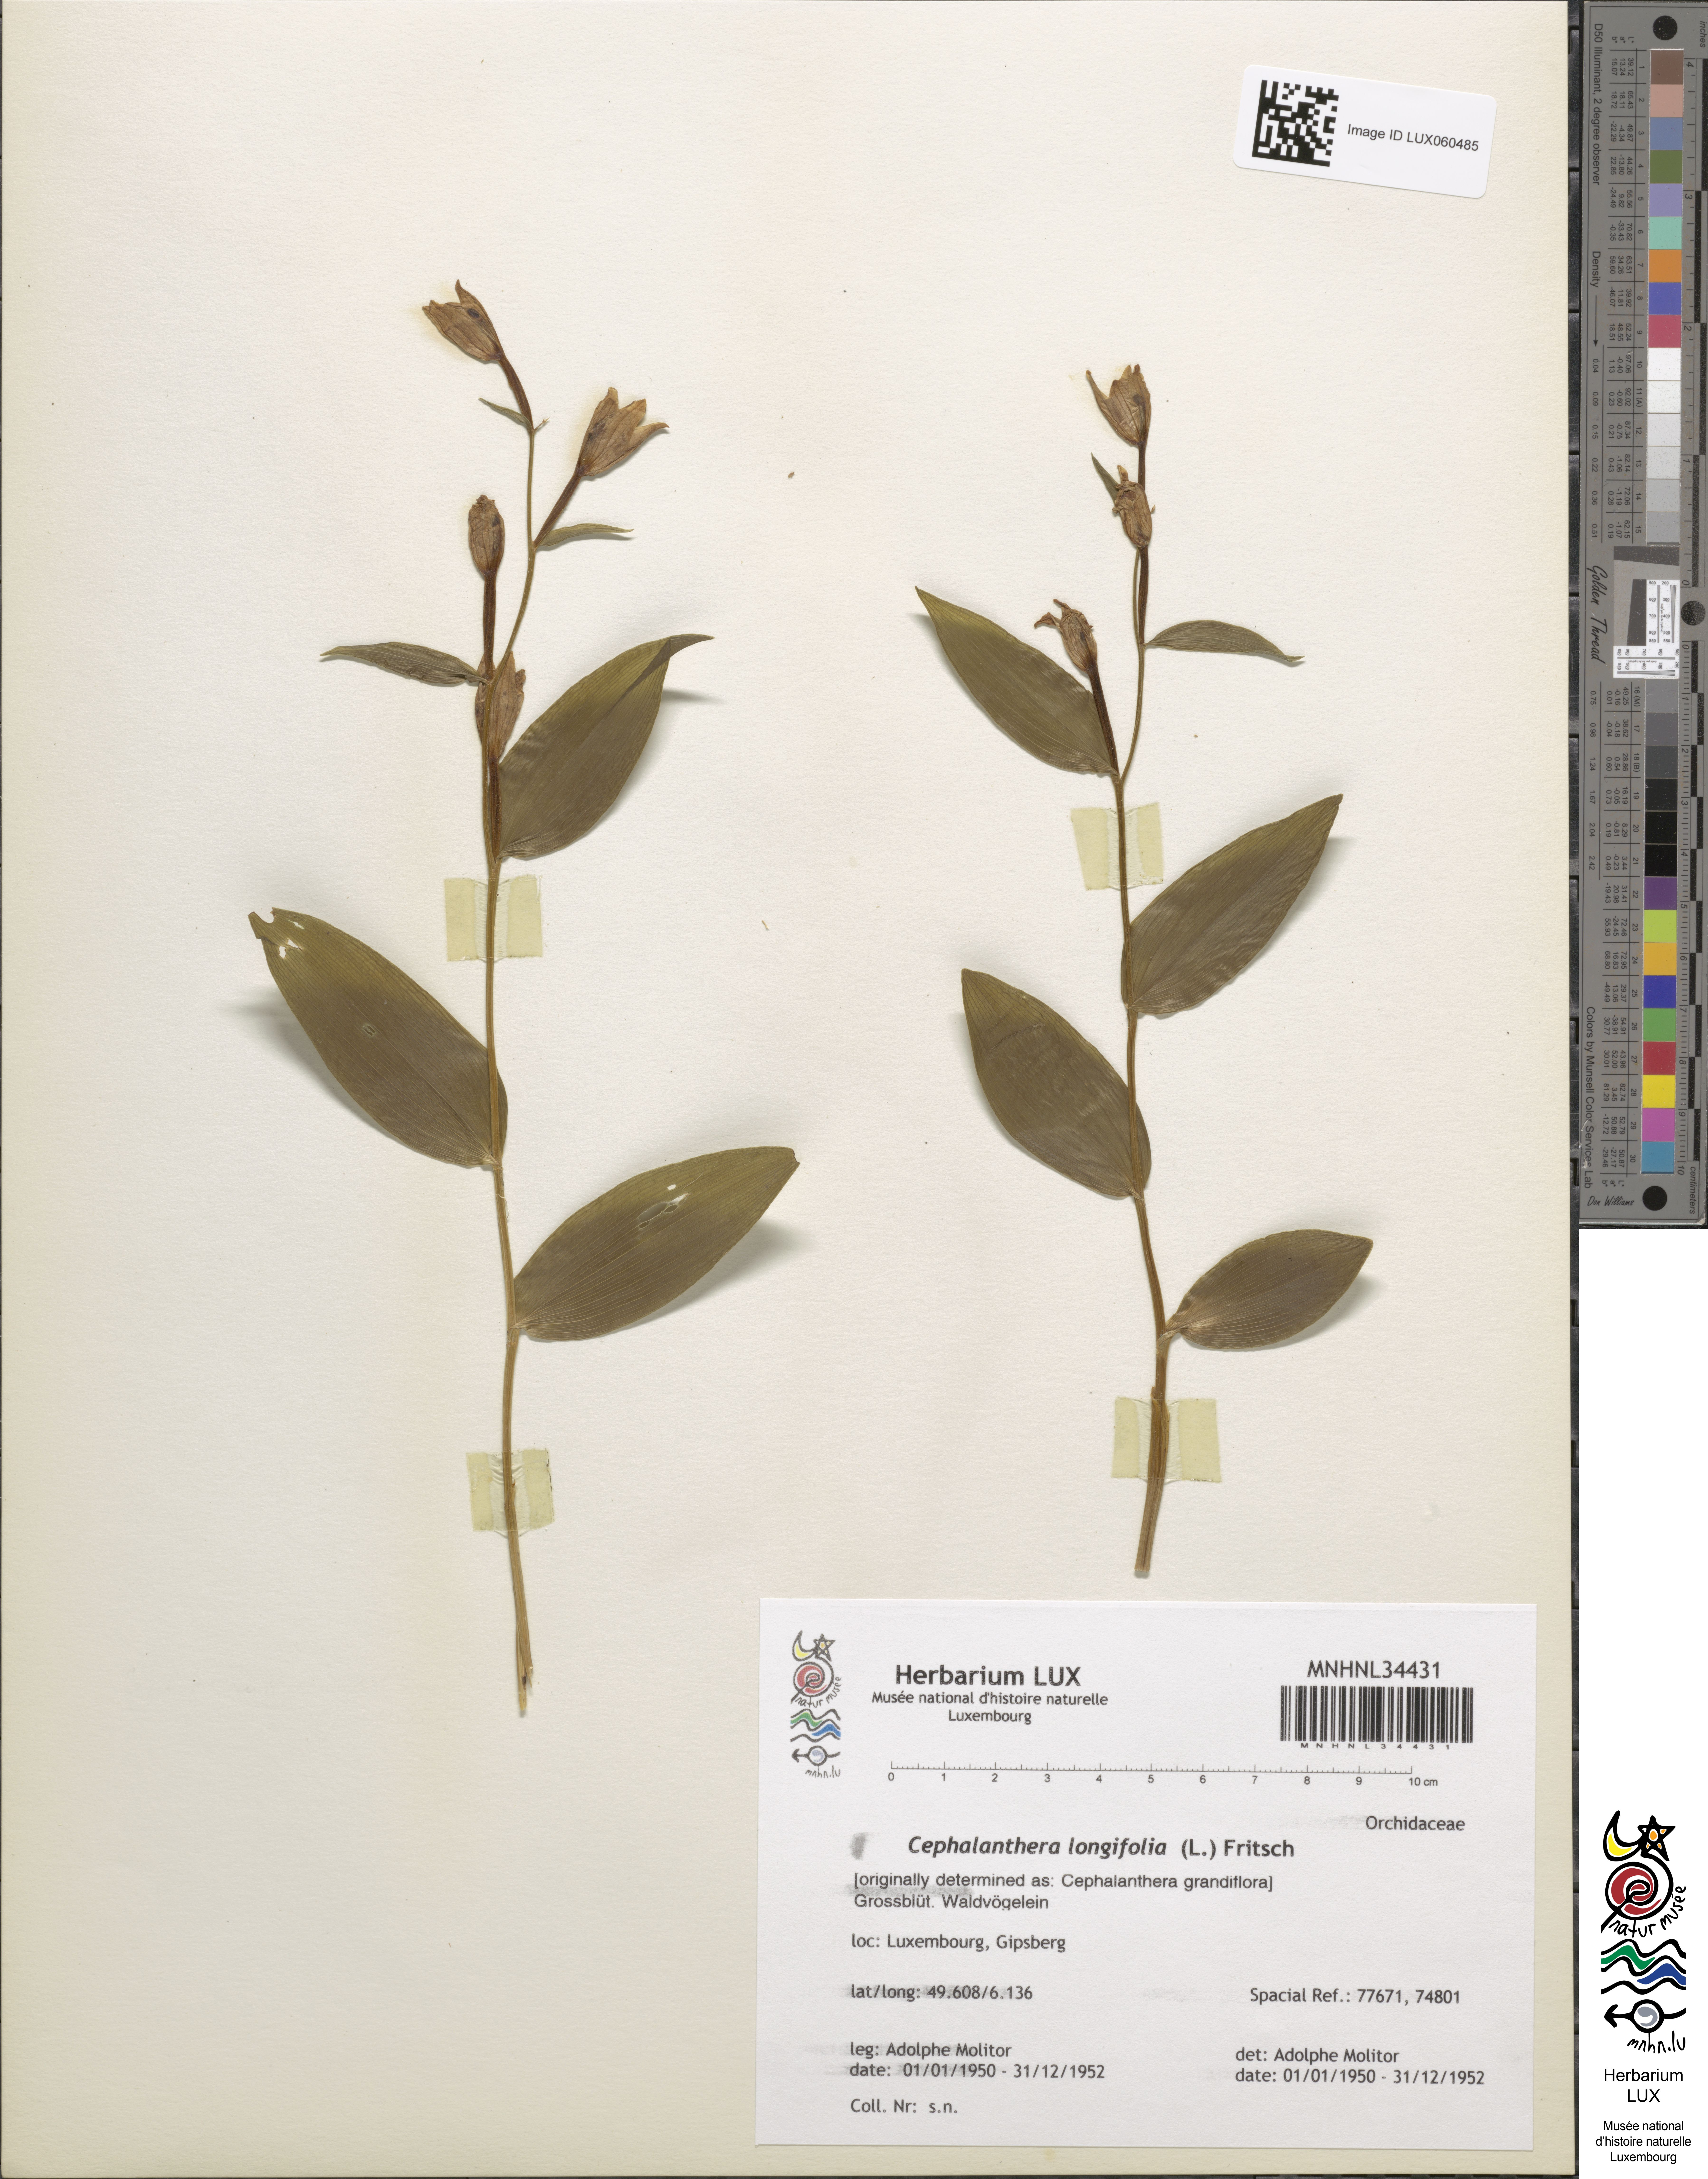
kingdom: Plantae
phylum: Tracheophyta
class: Liliopsida
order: Asparagales
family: Orchidaceae
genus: Cephalanthera
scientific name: Cephalanthera longifolia
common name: Narrow-leaved helleborine
